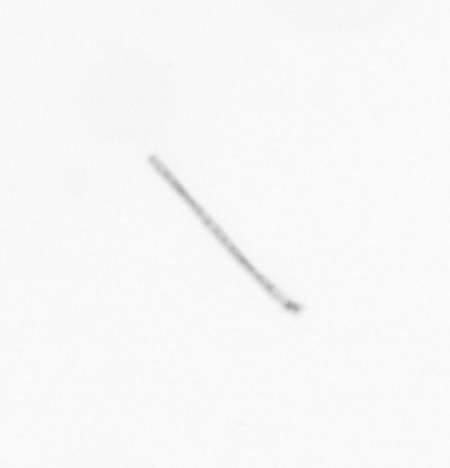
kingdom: Chromista
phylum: Ochrophyta
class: Bacillariophyceae
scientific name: Bacillariophyceae
